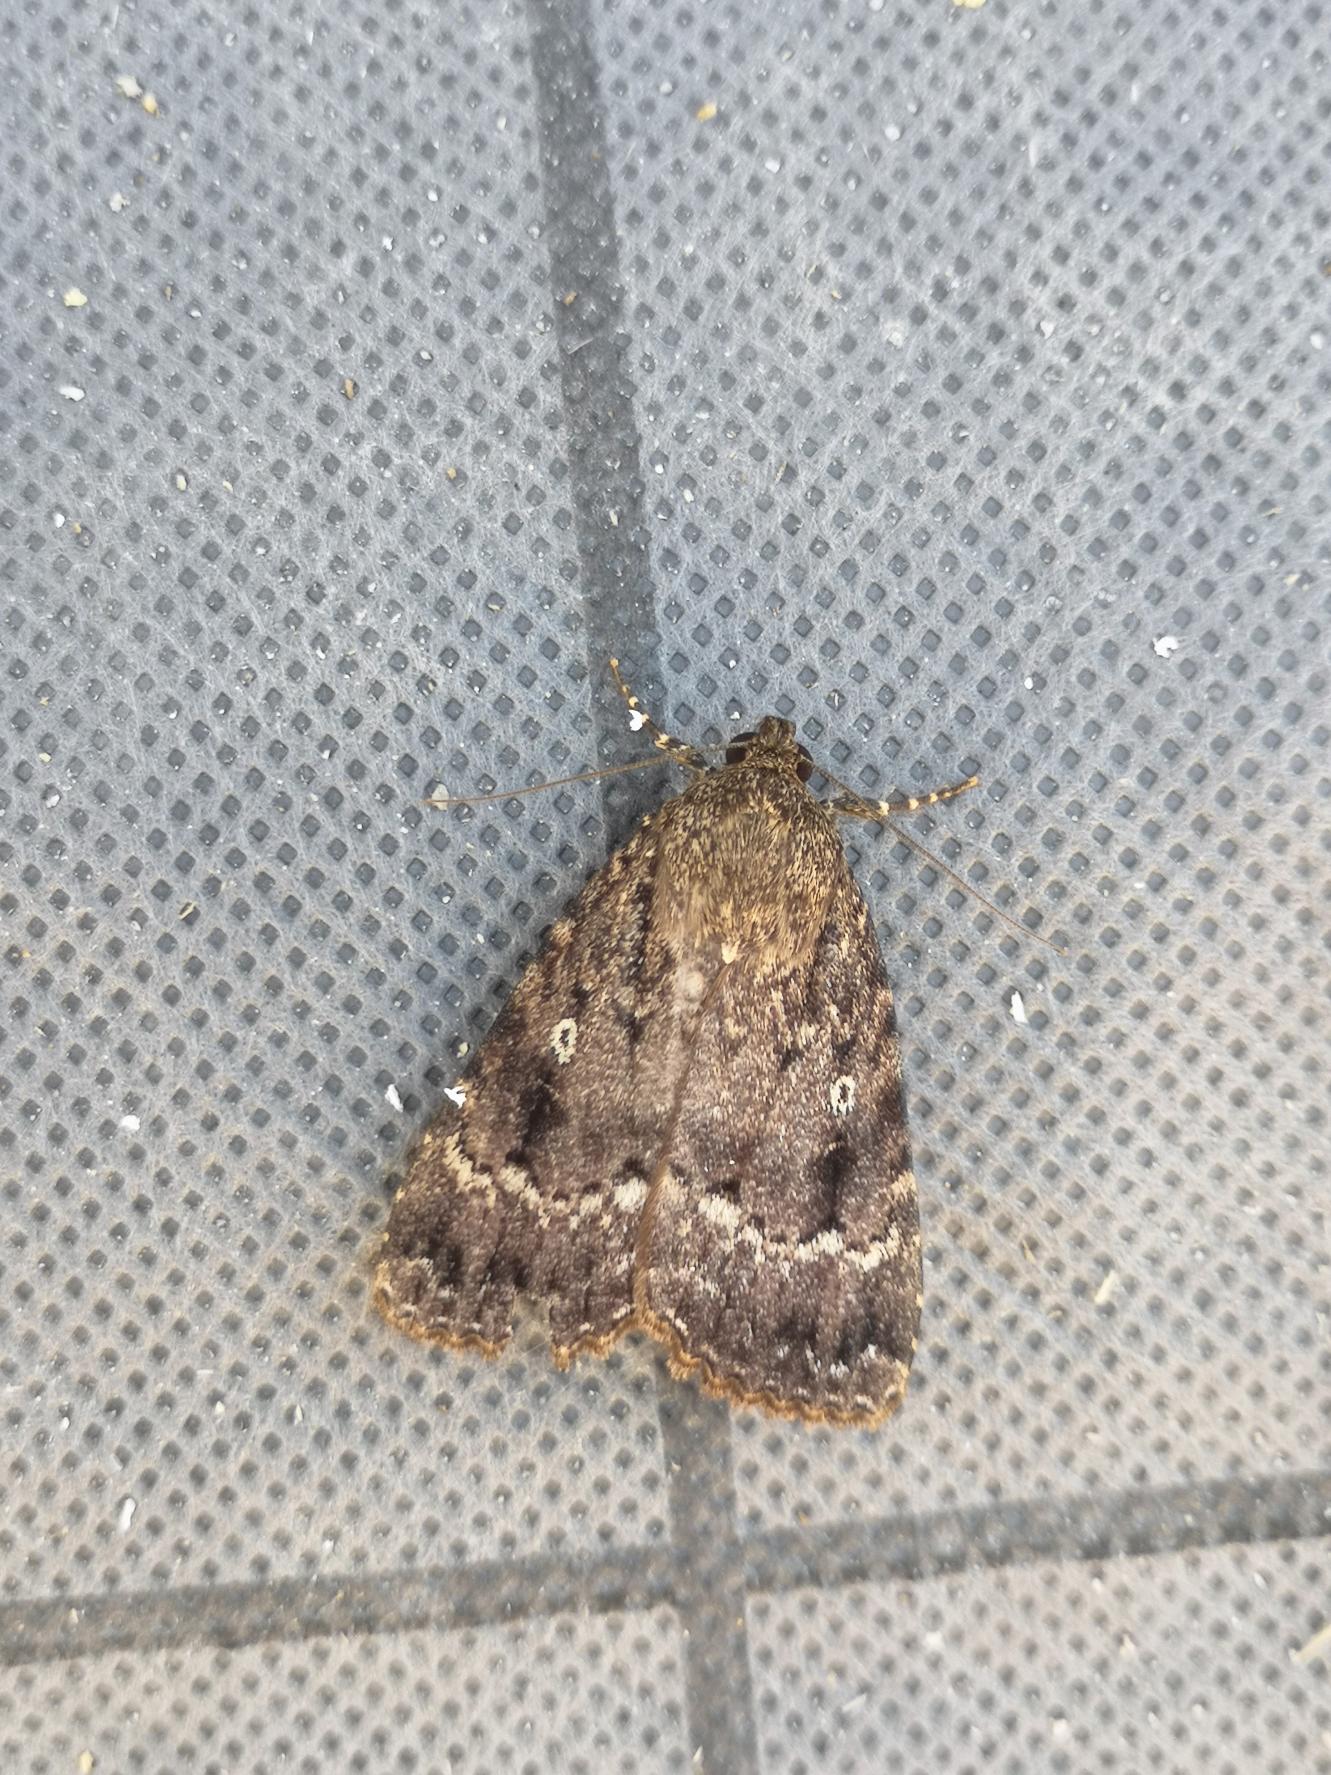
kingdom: Animalia
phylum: Arthropoda
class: Insecta
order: Lepidoptera
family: Noctuidae
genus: Amphipyra
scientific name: Amphipyra pyramidea
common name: Pyramideugle
